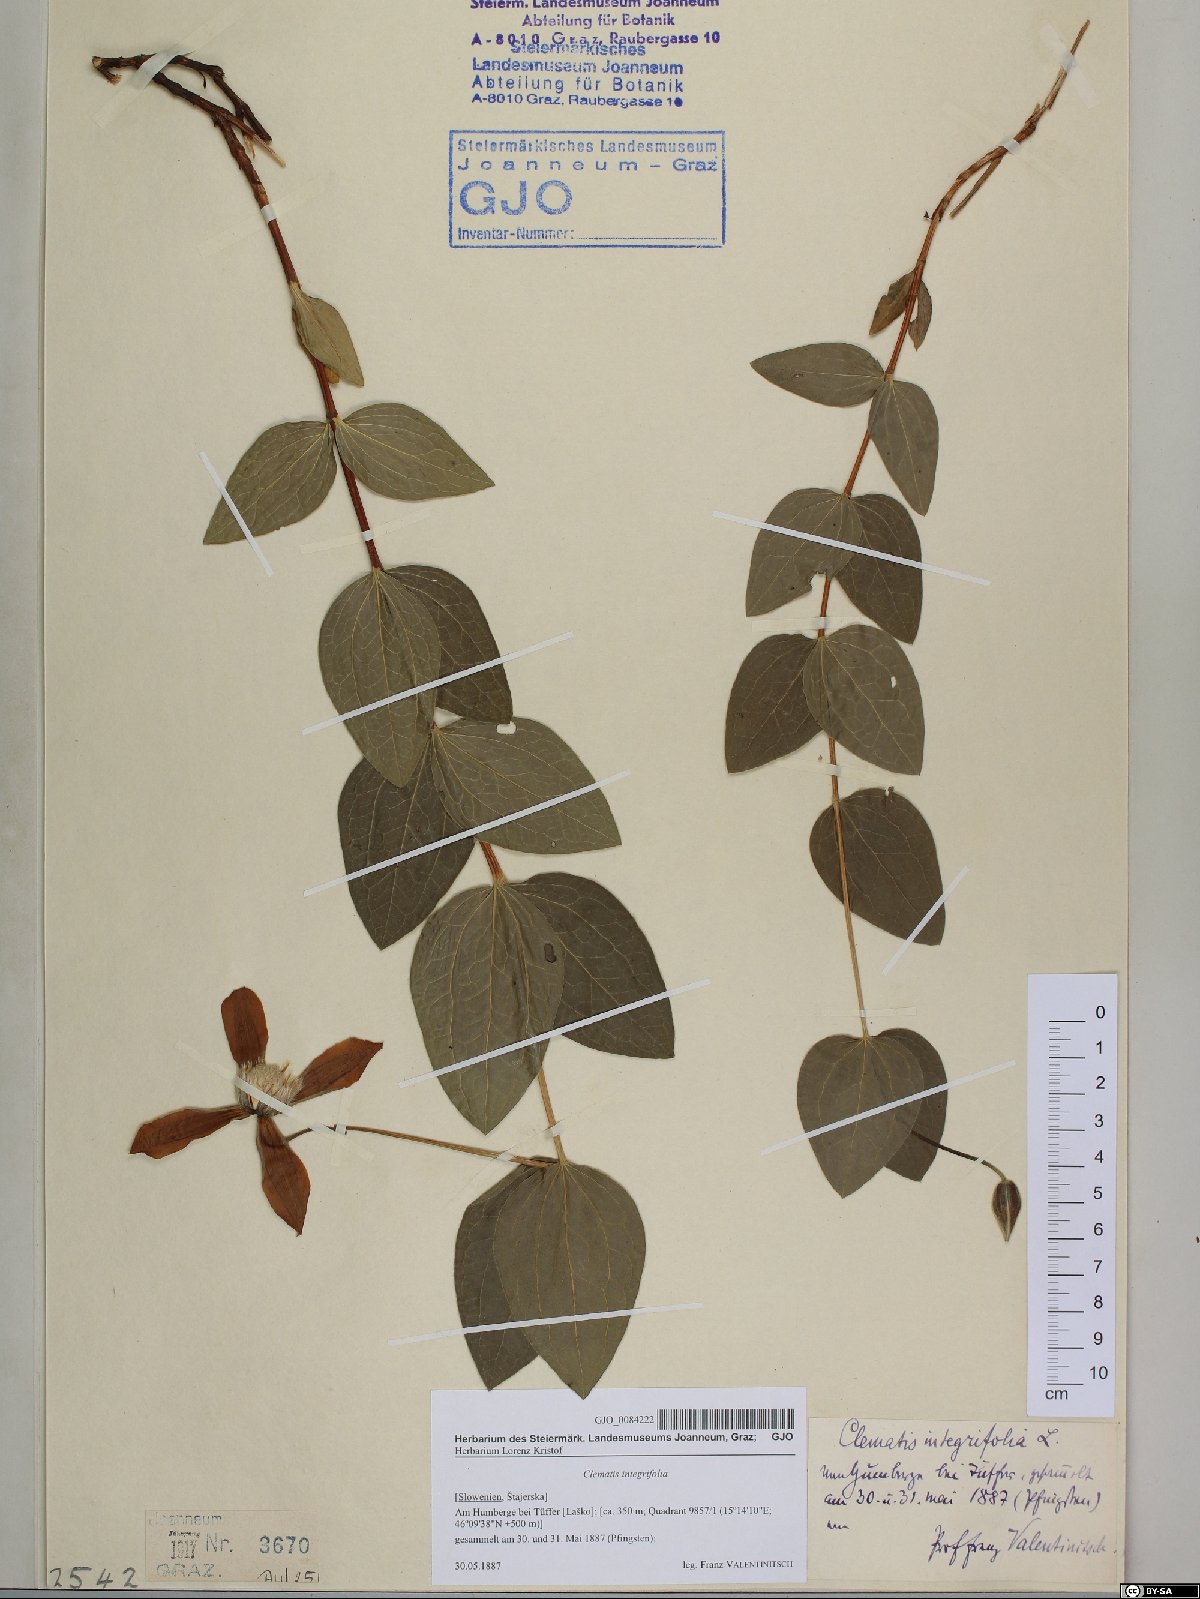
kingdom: Plantae
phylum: Tracheophyta
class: Magnoliopsida
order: Ranunculales
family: Ranunculaceae
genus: Clematis
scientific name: Clematis integrifolia
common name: Solitary clematis
